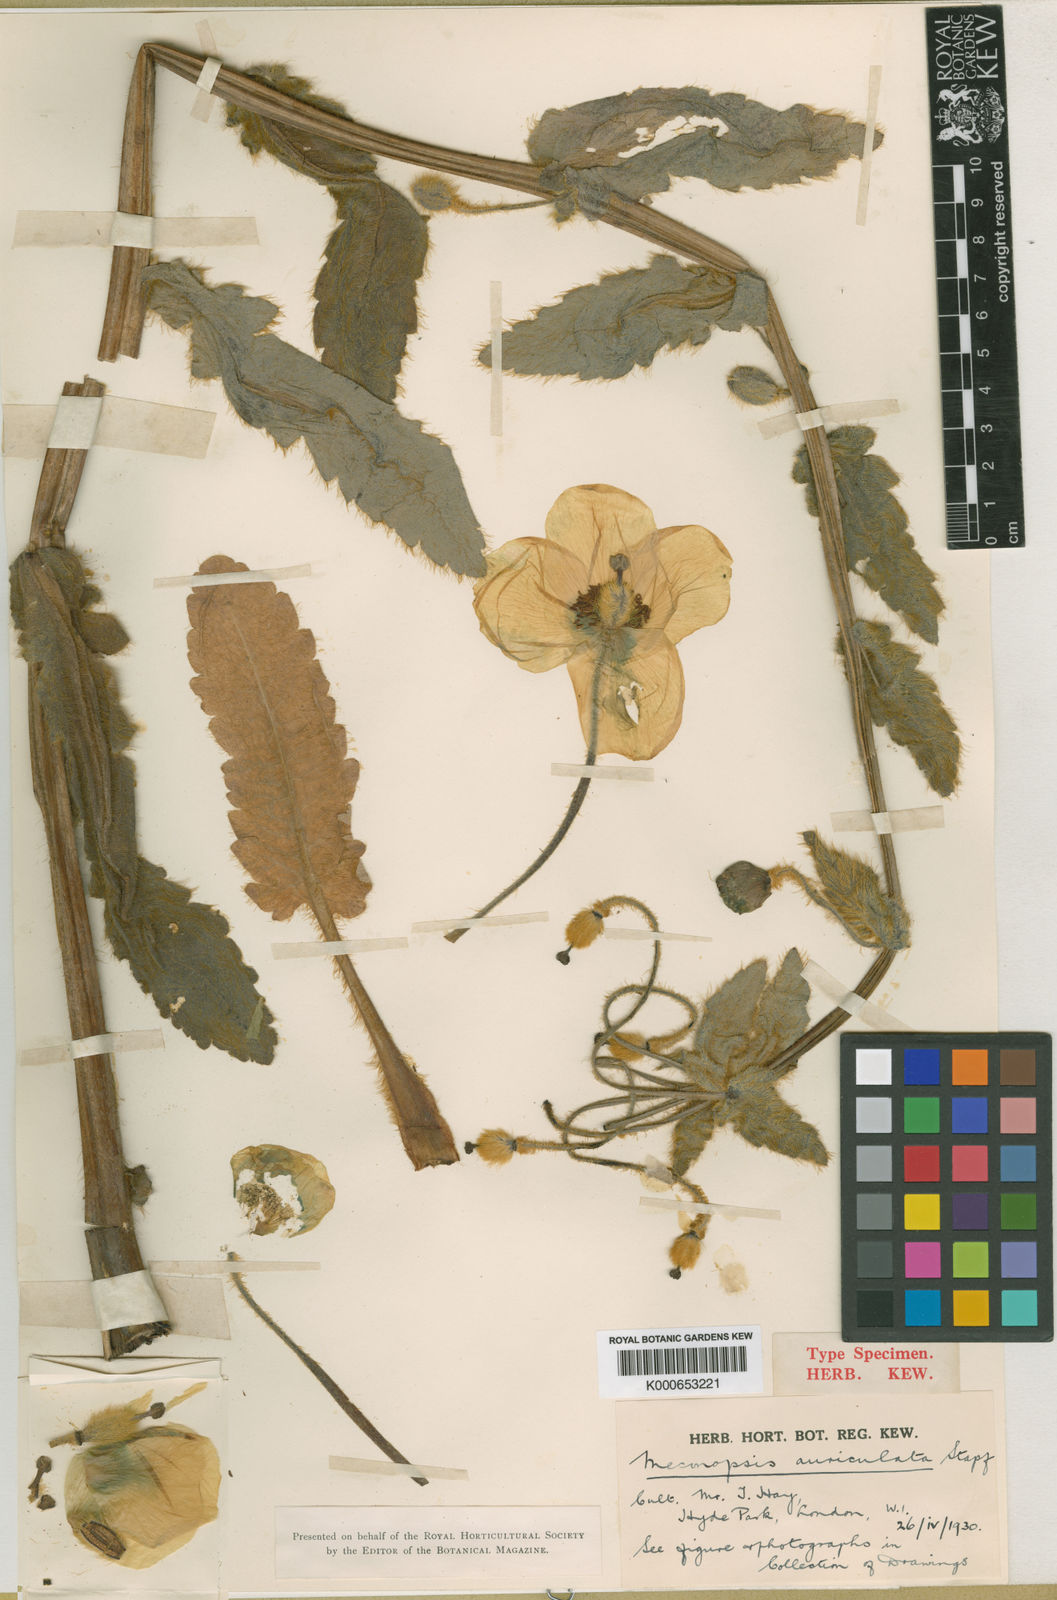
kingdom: Plantae
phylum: Tracheophyta
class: Magnoliopsida
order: Ranunculales
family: Papaveraceae
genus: Meconopsis
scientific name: Meconopsis auriculata
